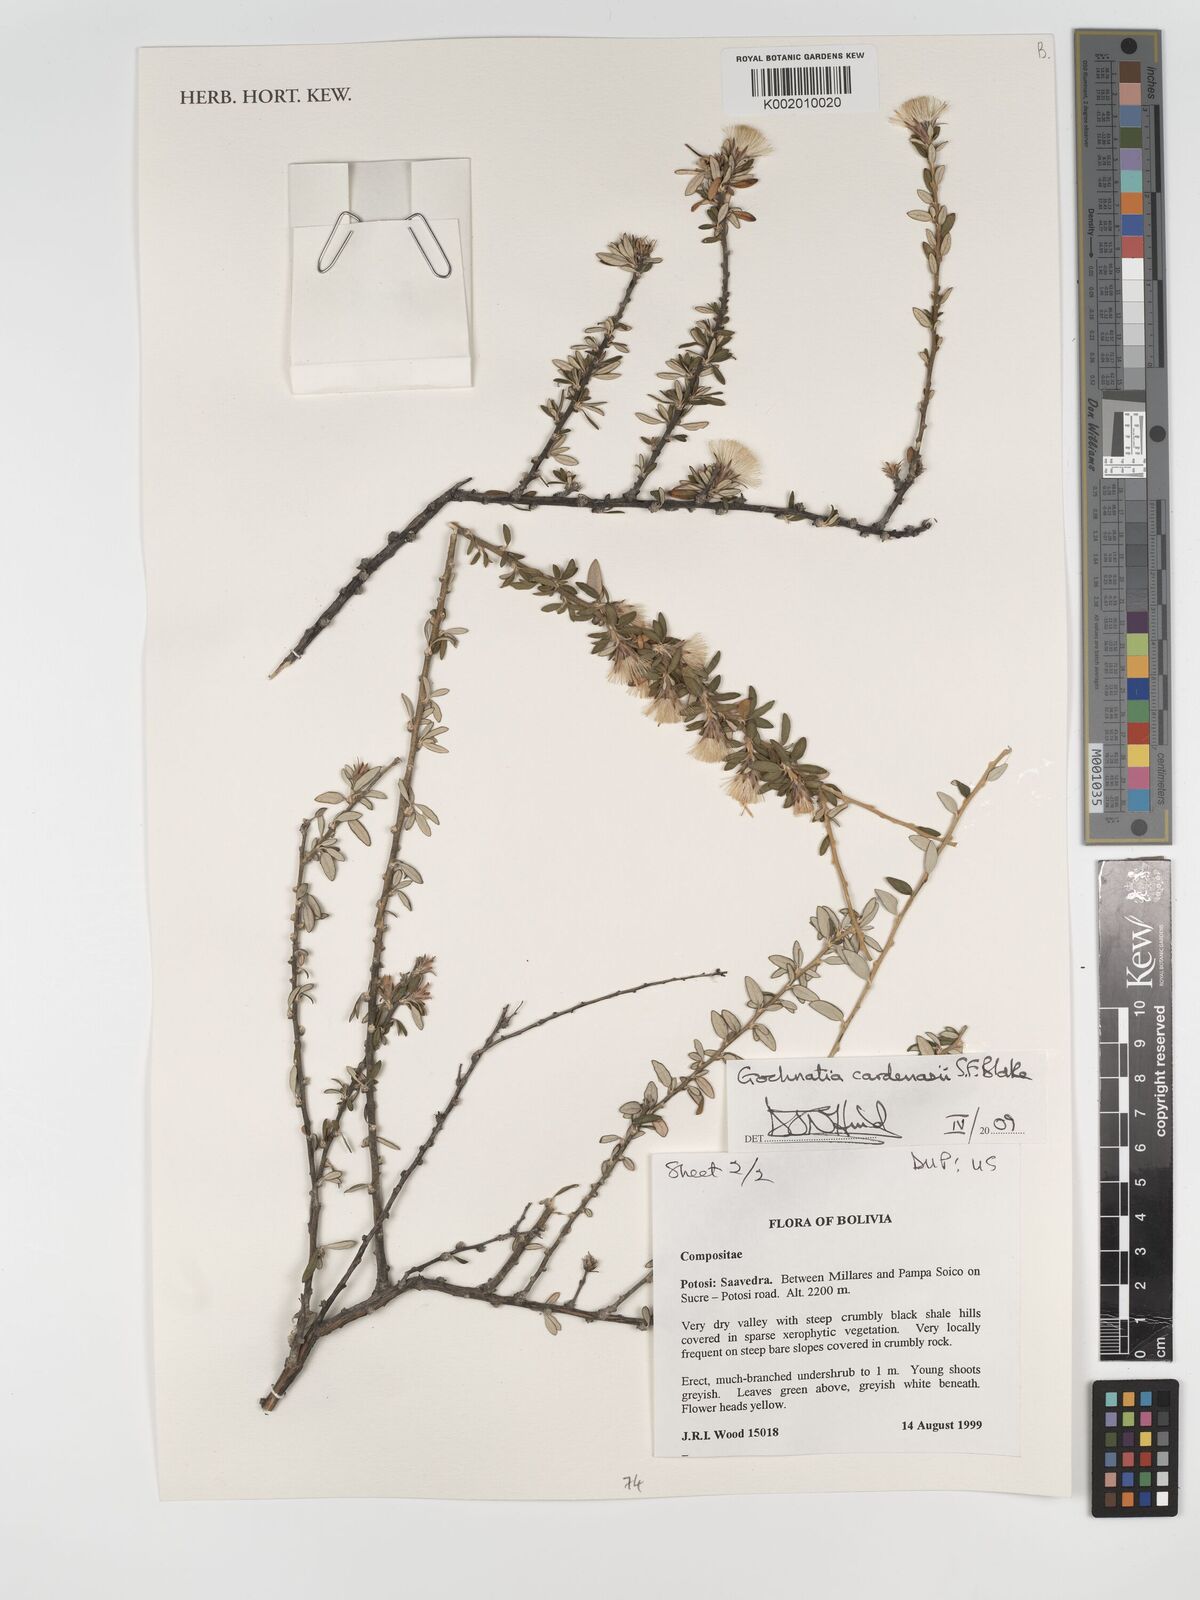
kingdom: Plantae
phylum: Tracheophyta
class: Magnoliopsida
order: Asterales
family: Asteraceae
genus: Gochnatia
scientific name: Gochnatia cardenasii
